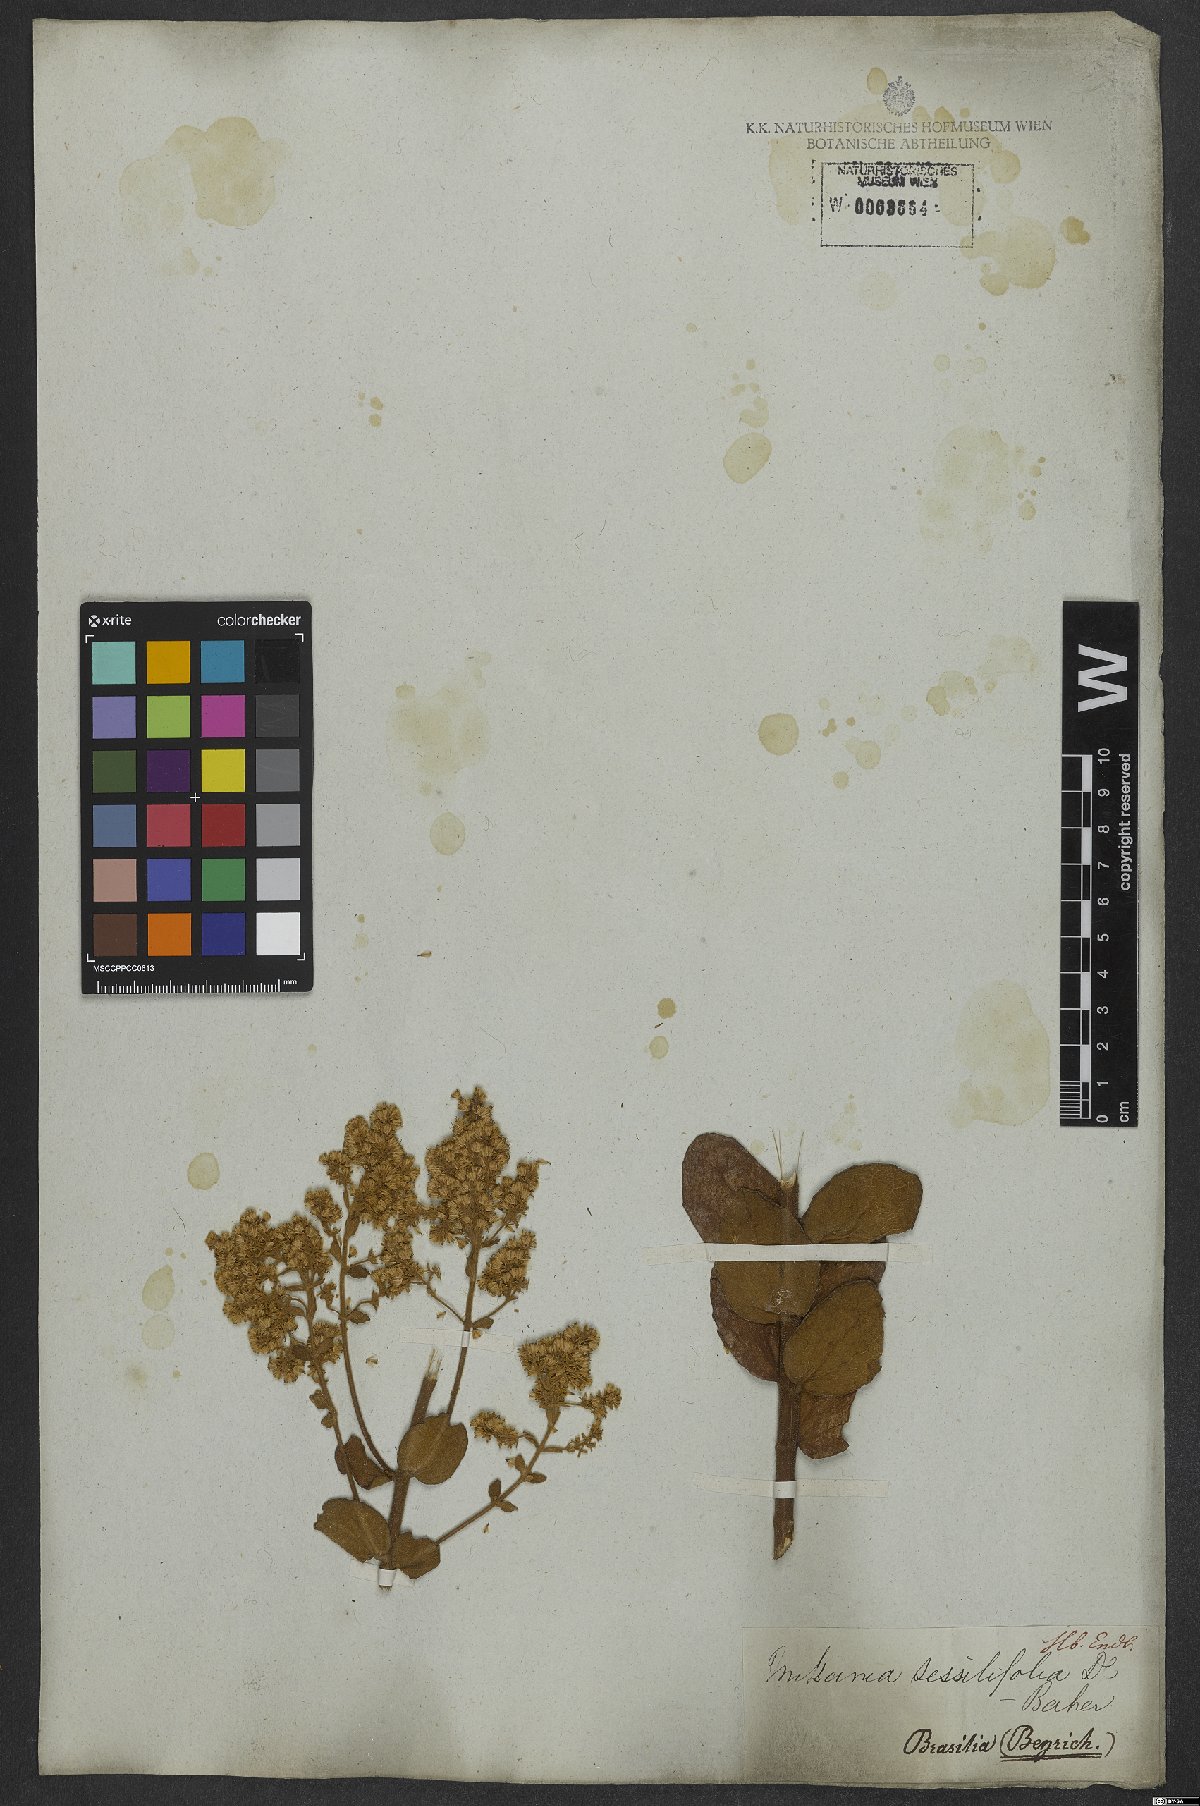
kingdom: Plantae
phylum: Tracheophyta
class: Magnoliopsida
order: Asterales
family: Asteraceae
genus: Mikania
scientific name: Mikania sessilifolia
